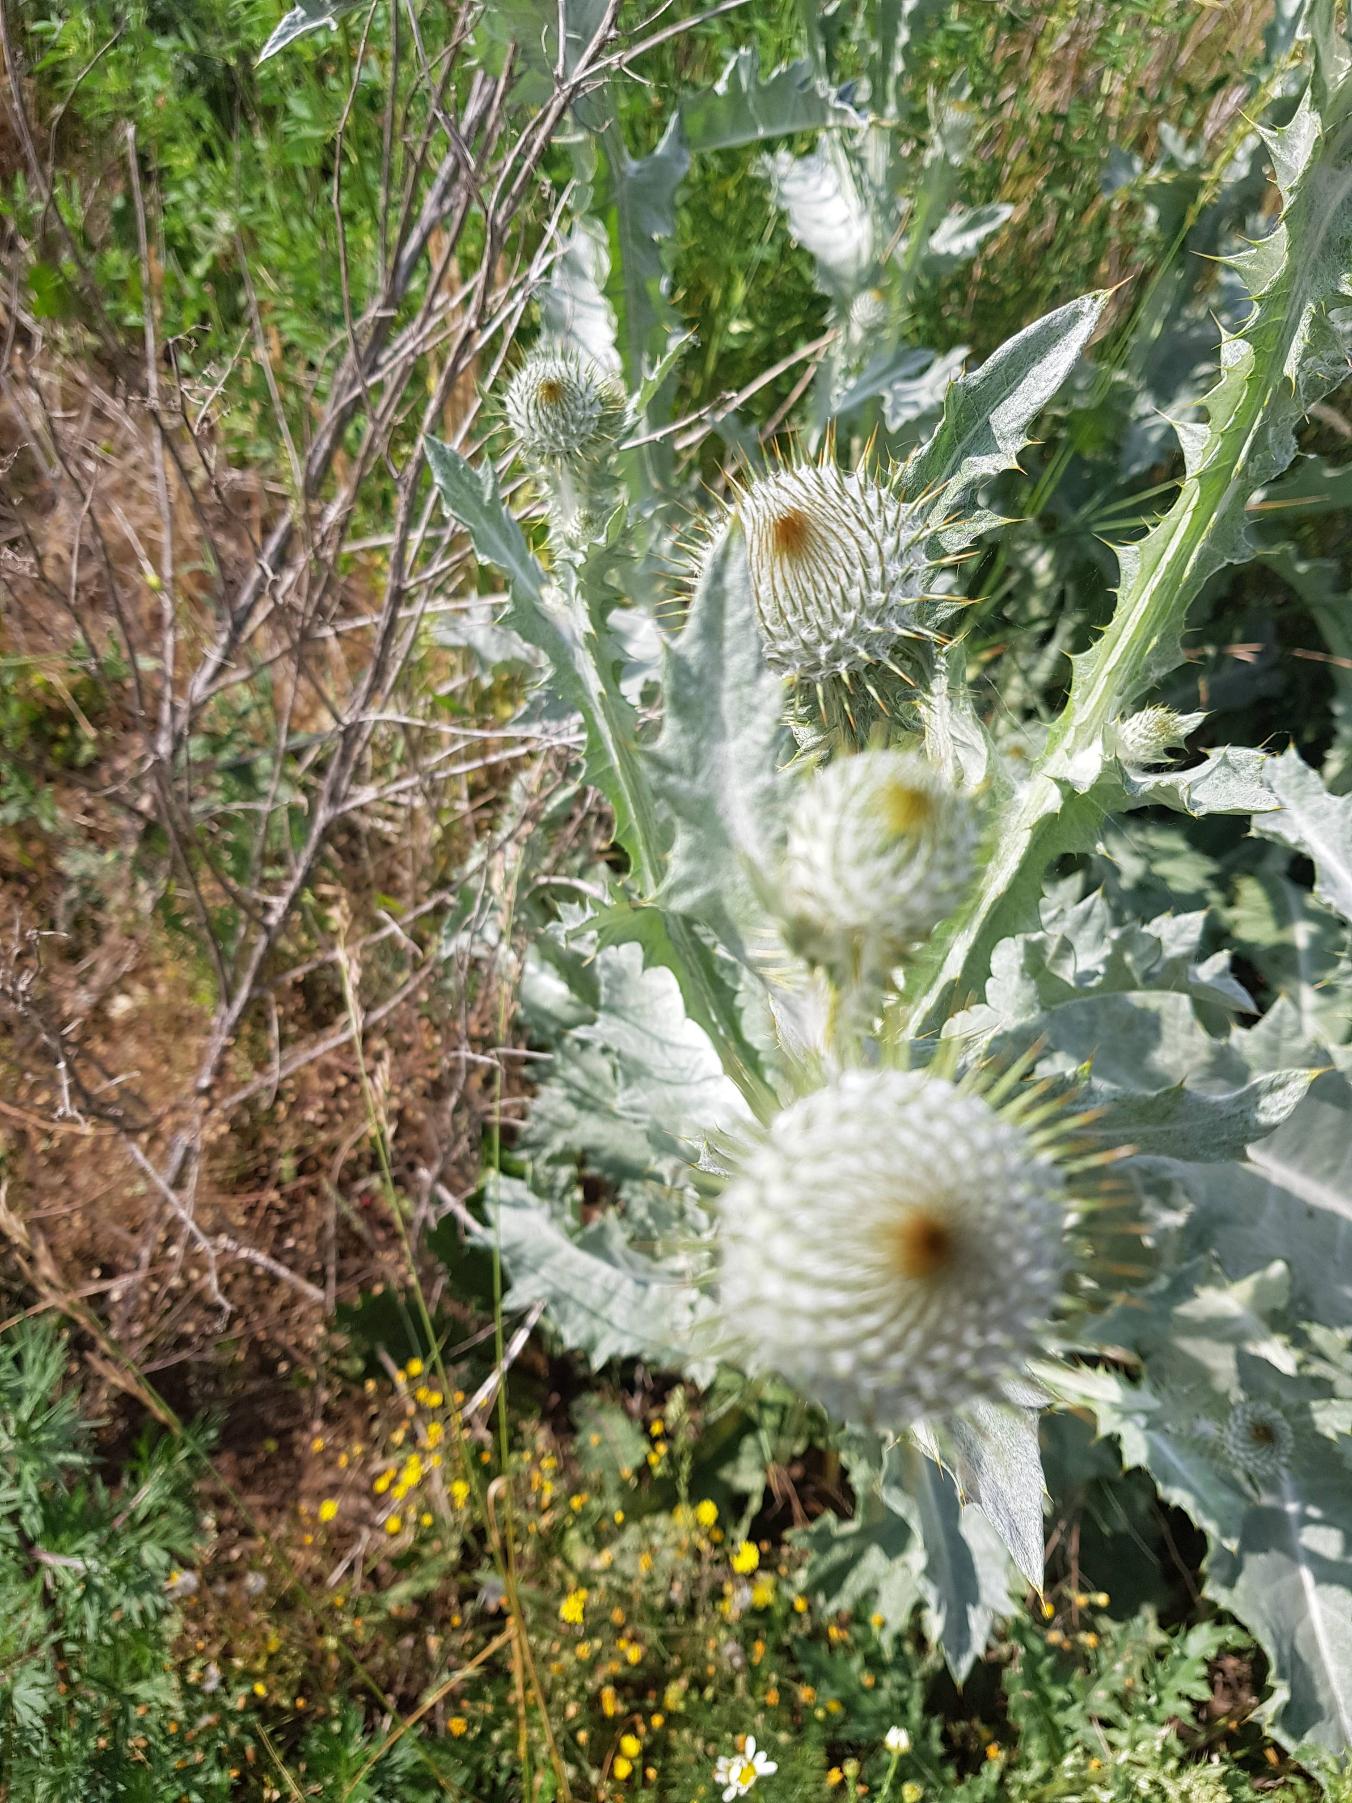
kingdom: Plantae
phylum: Tracheophyta
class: Magnoliopsida
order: Asterales
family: Asteraceae
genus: Onopordum
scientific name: Onopordum acanthium
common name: Æselfoder
